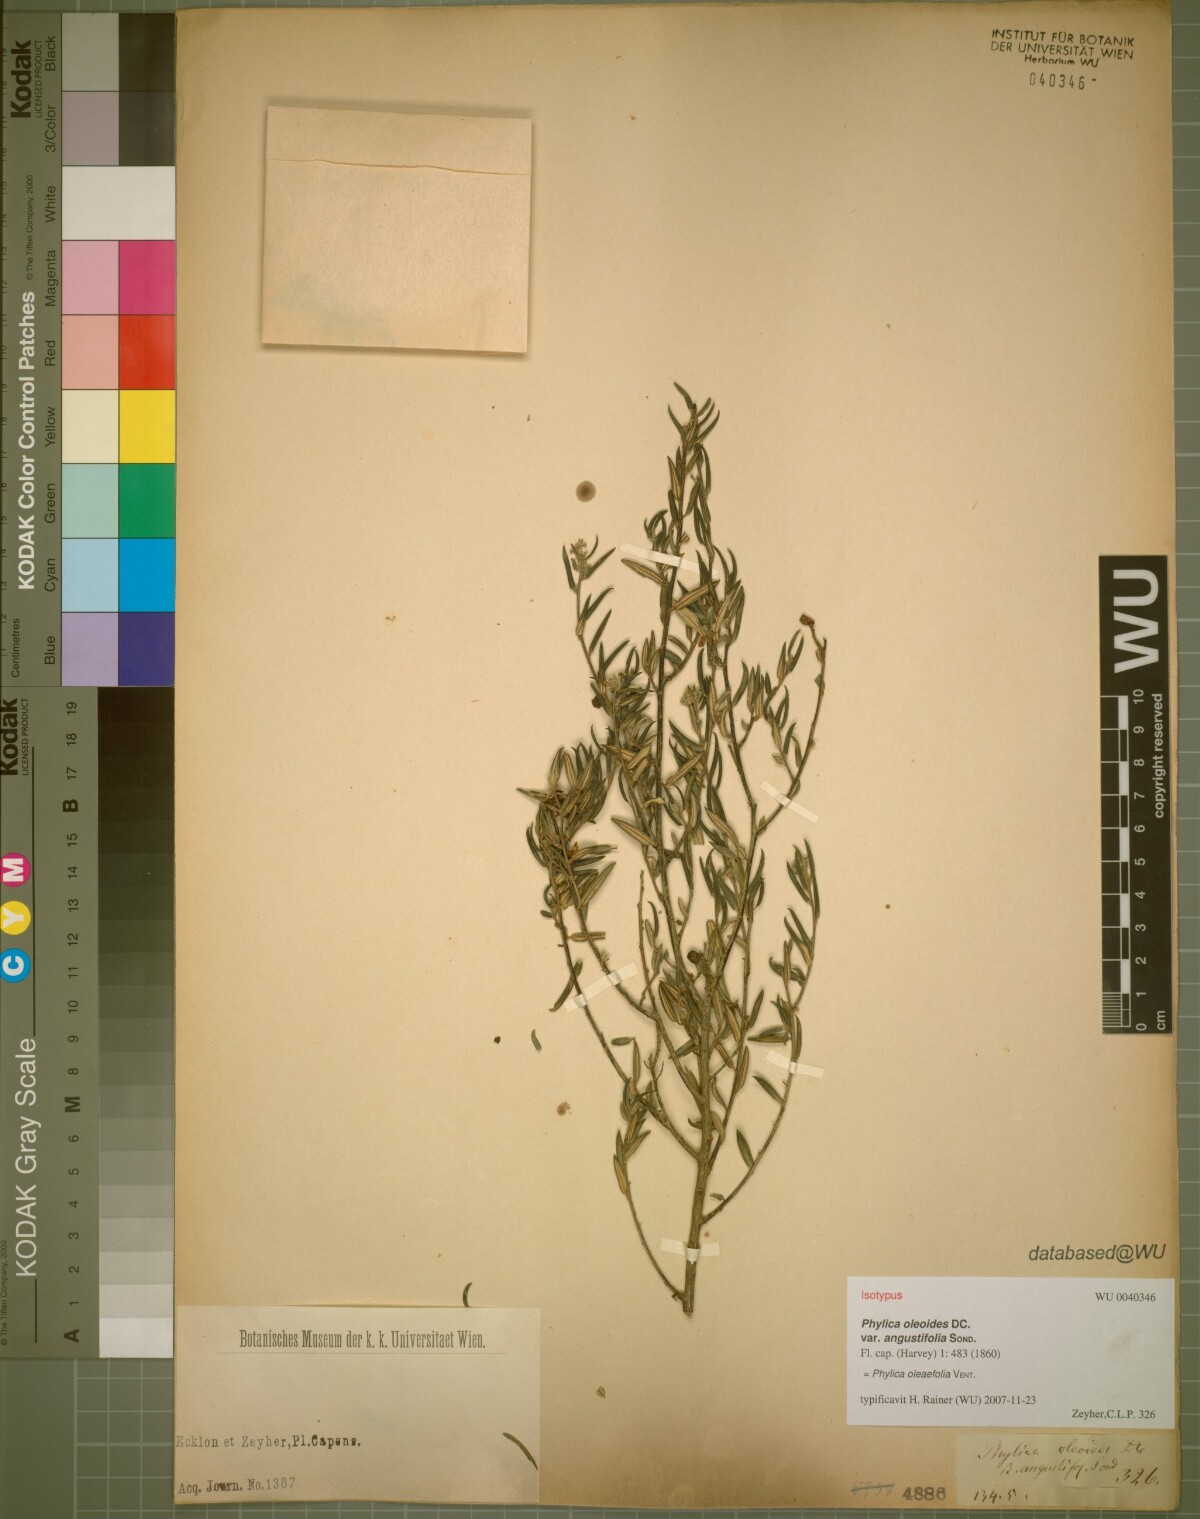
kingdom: Plantae
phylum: Tracheophyta
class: Magnoliopsida
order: Rosales
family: Rhamnaceae
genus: Phylica
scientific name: Phylica oleifolia
